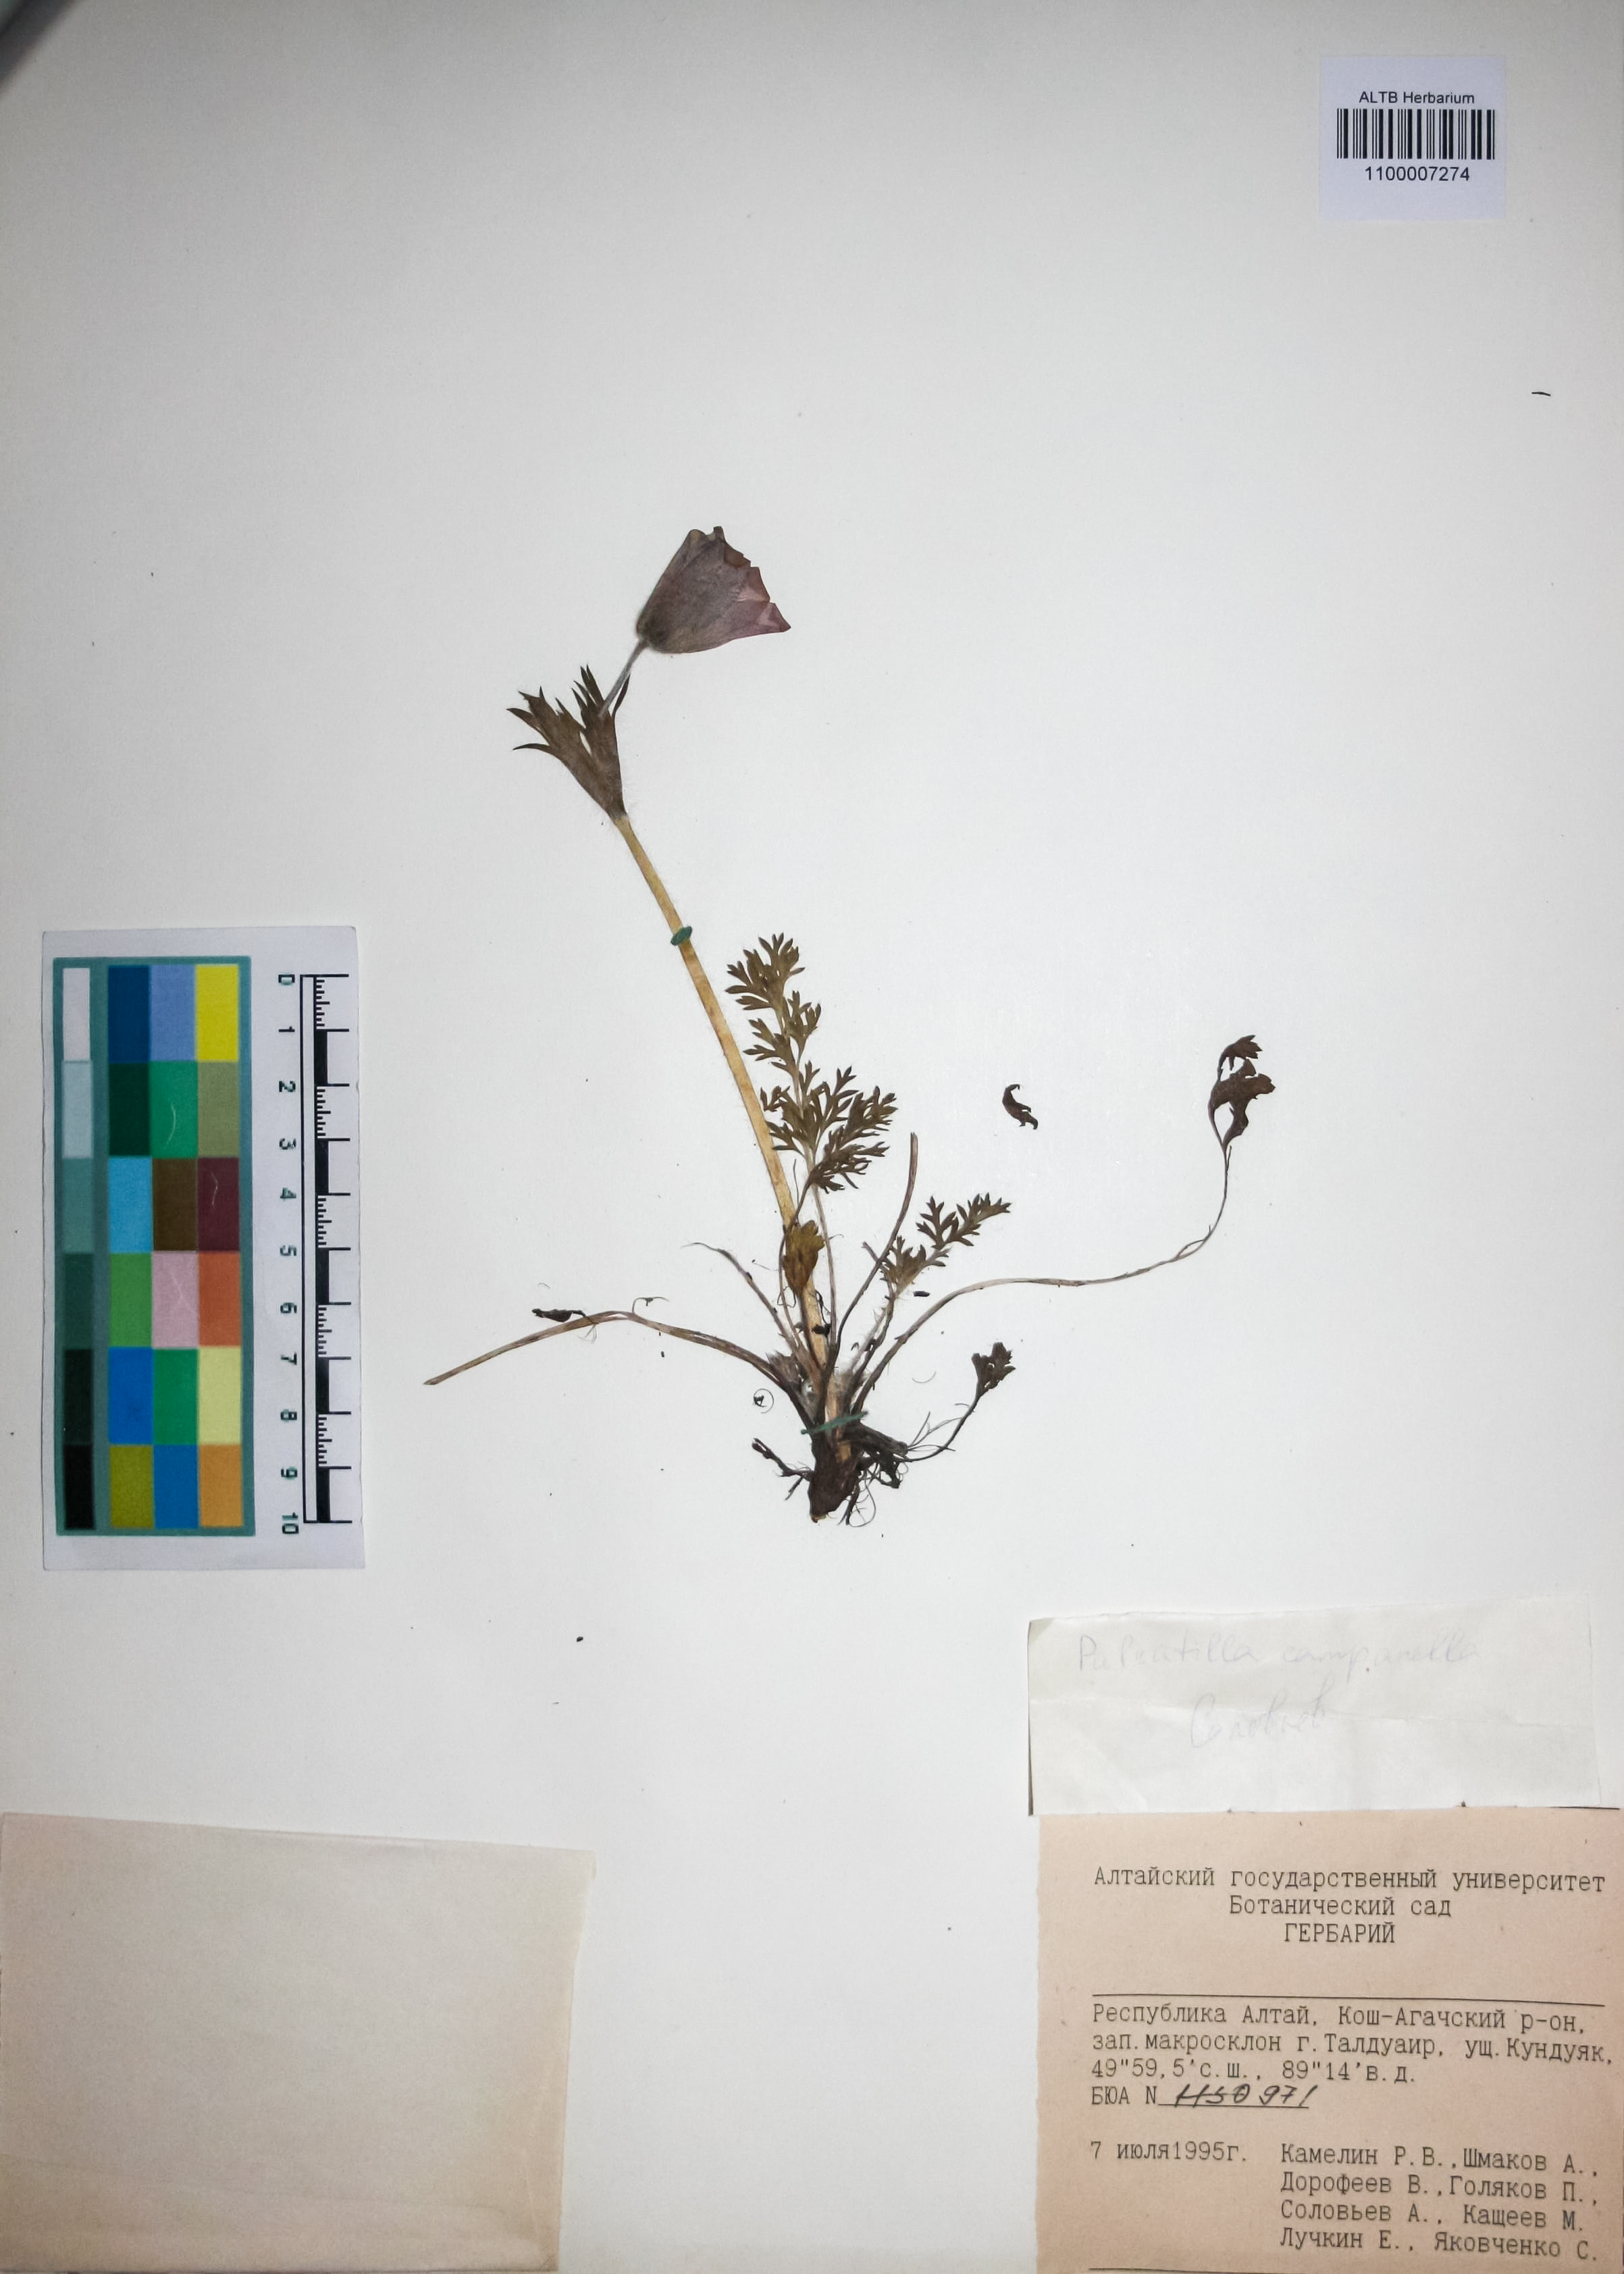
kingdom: Plantae
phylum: Tracheophyta
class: Magnoliopsida
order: Ranunculales
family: Ranunculaceae
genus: Pulsatilla
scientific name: Pulsatilla campanella
